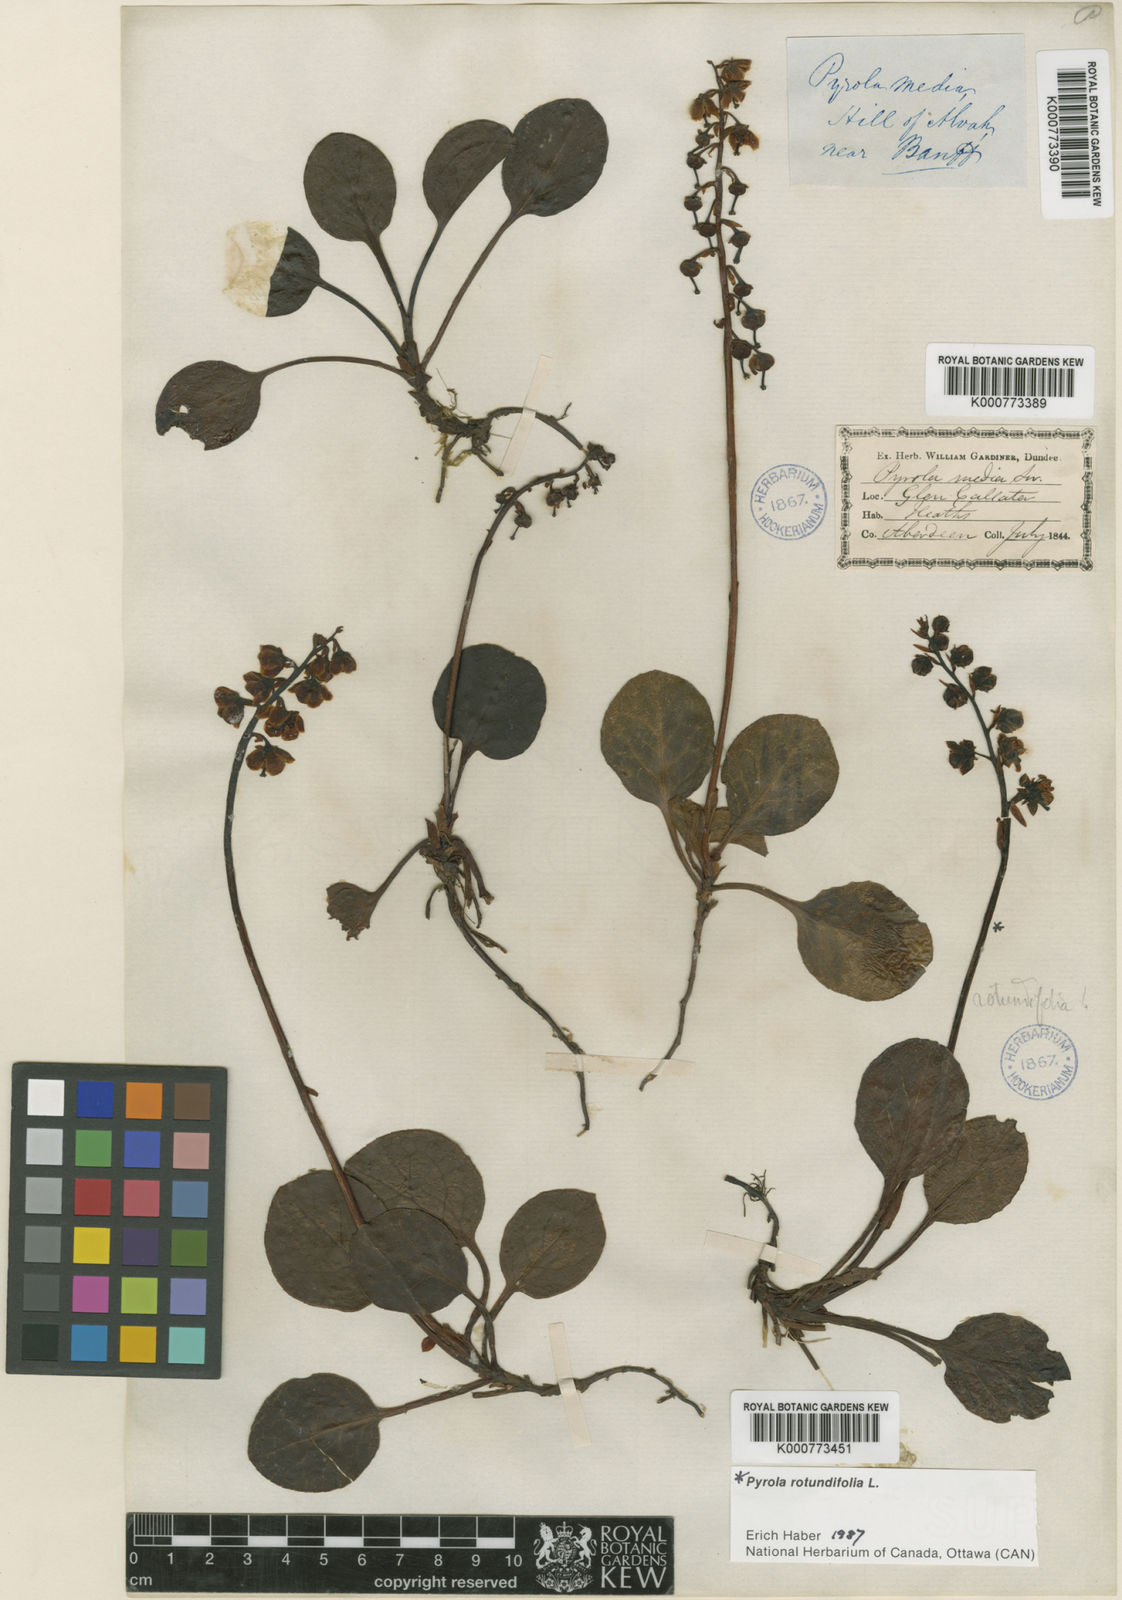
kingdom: Plantae
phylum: Tracheophyta
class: Magnoliopsida
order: Ericales
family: Ericaceae
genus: Pyrola
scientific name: Pyrola media
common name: Intermediate wintergreen
